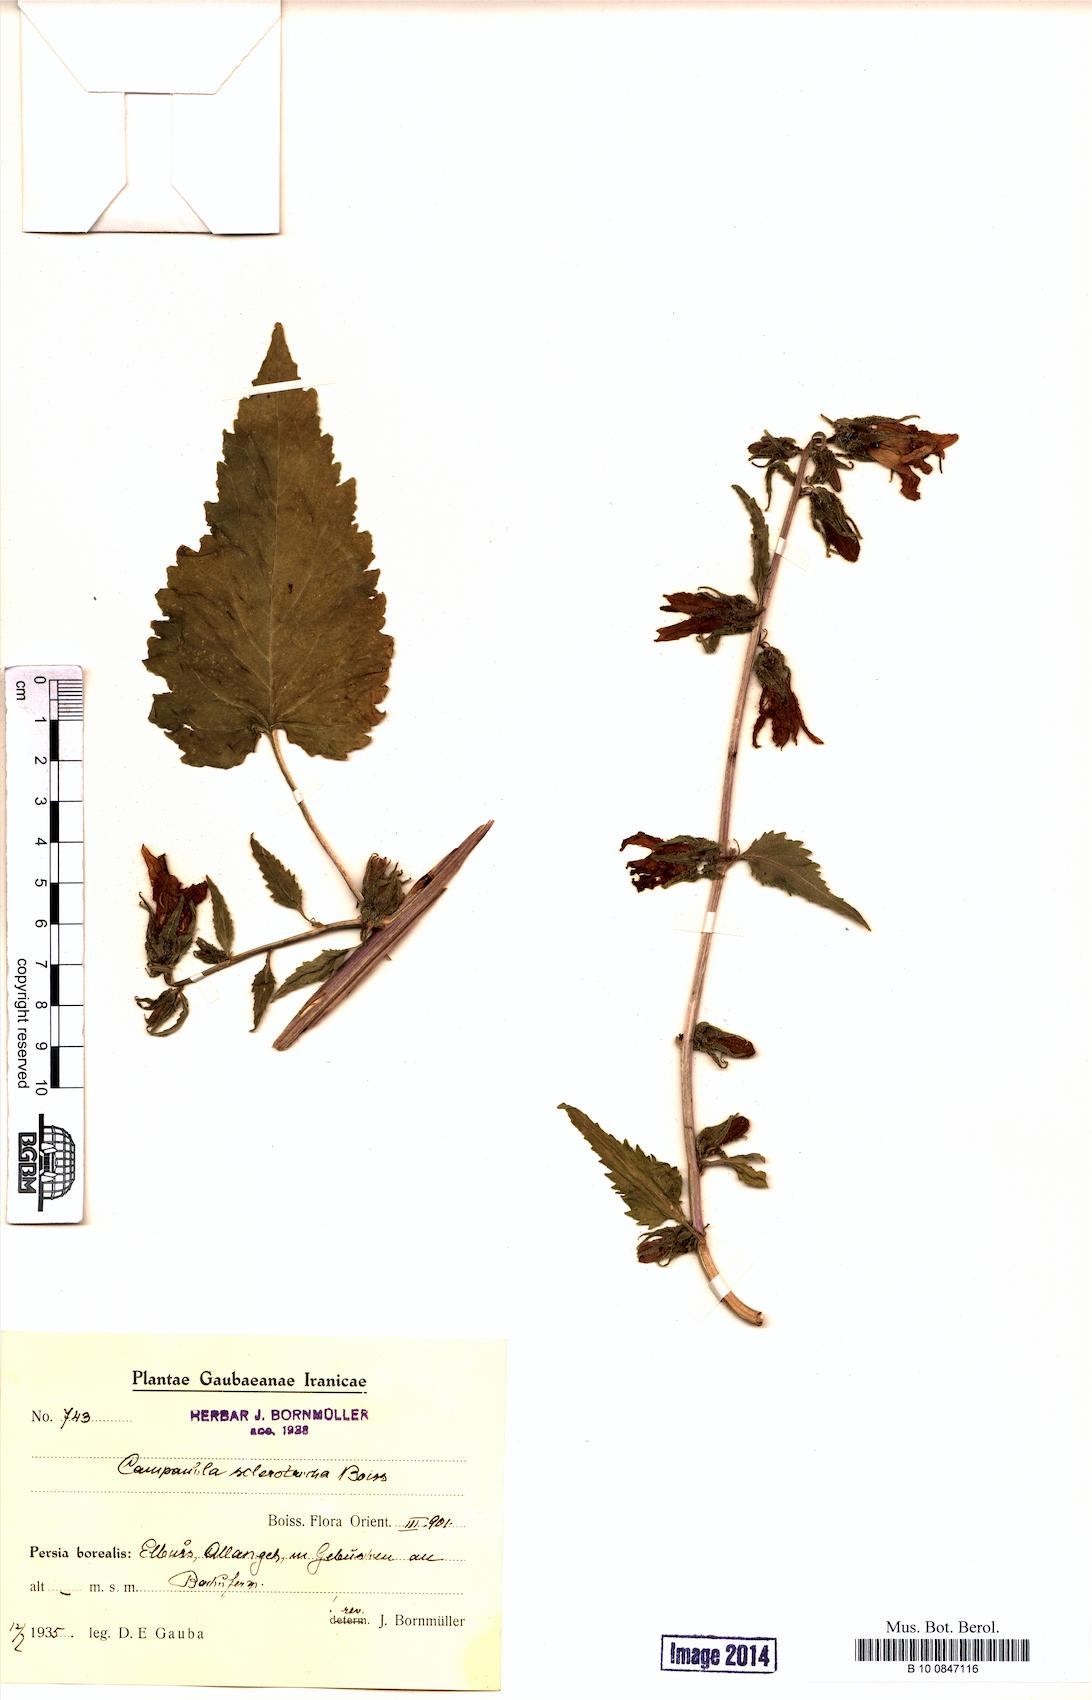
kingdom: Plantae
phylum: Tracheophyta
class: Magnoliopsida
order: Asterales
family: Campanulaceae
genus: Campanula
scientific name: Campanula sclerotricha
